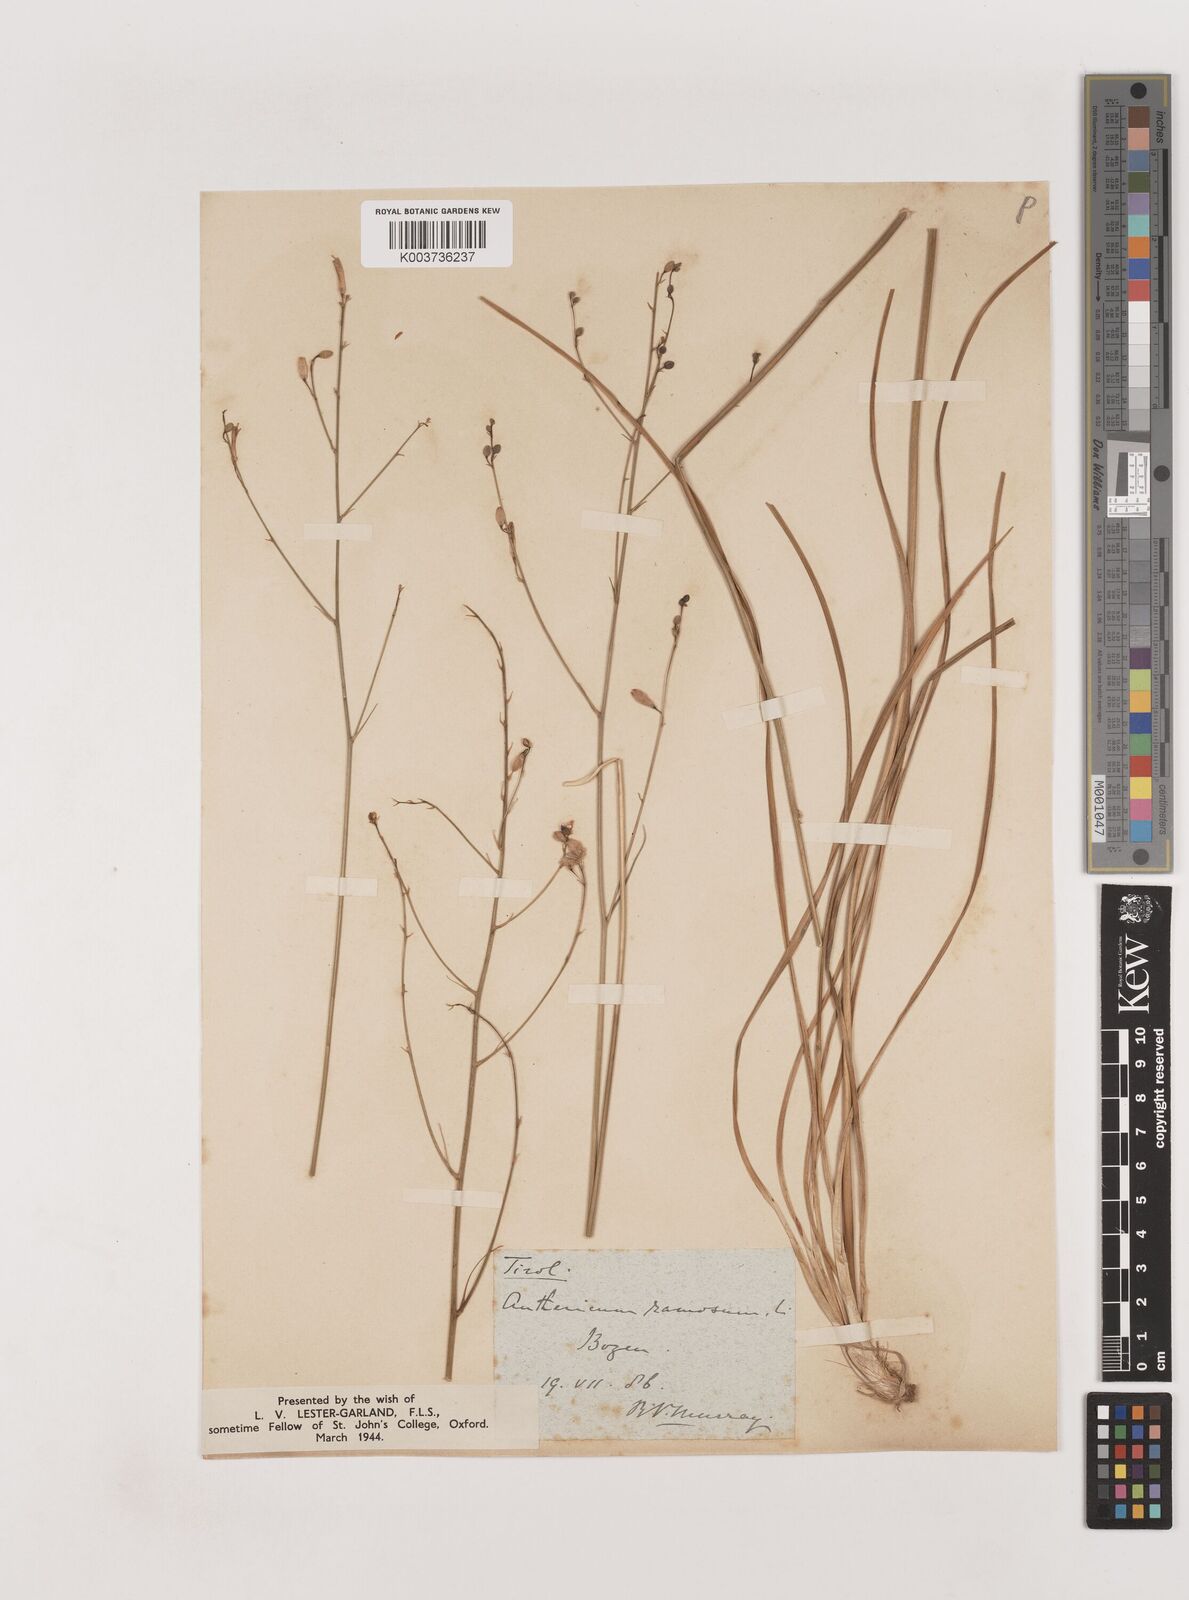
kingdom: Plantae
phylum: Tracheophyta
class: Liliopsida
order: Asparagales
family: Asparagaceae
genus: Anthericum
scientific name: Anthericum
